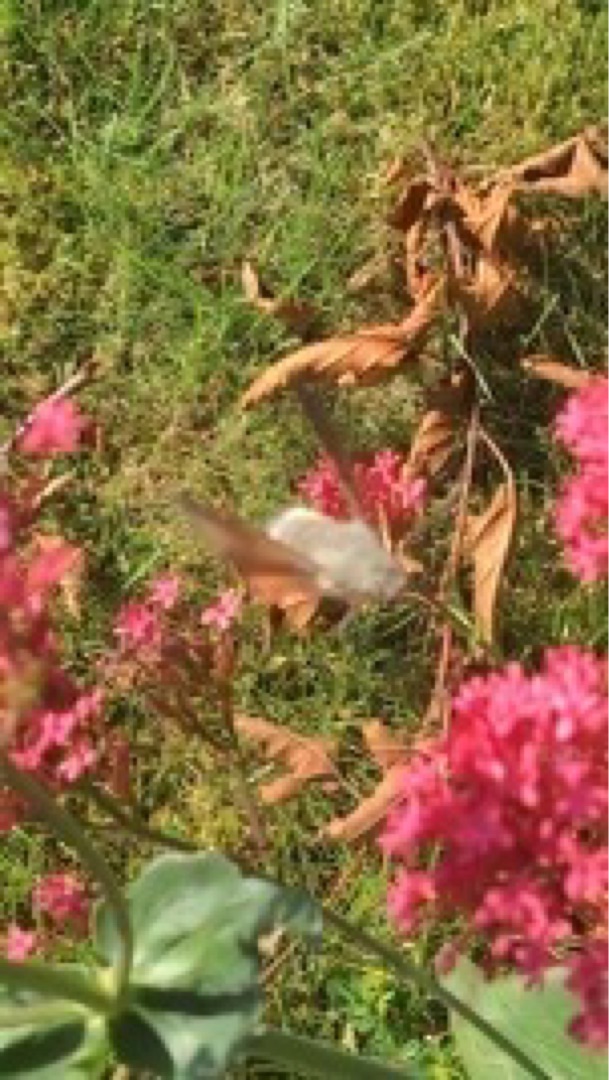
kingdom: Animalia
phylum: Arthropoda
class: Insecta
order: Lepidoptera
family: Sphingidae
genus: Macroglossum
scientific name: Macroglossum stellatarum
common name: Duehale
